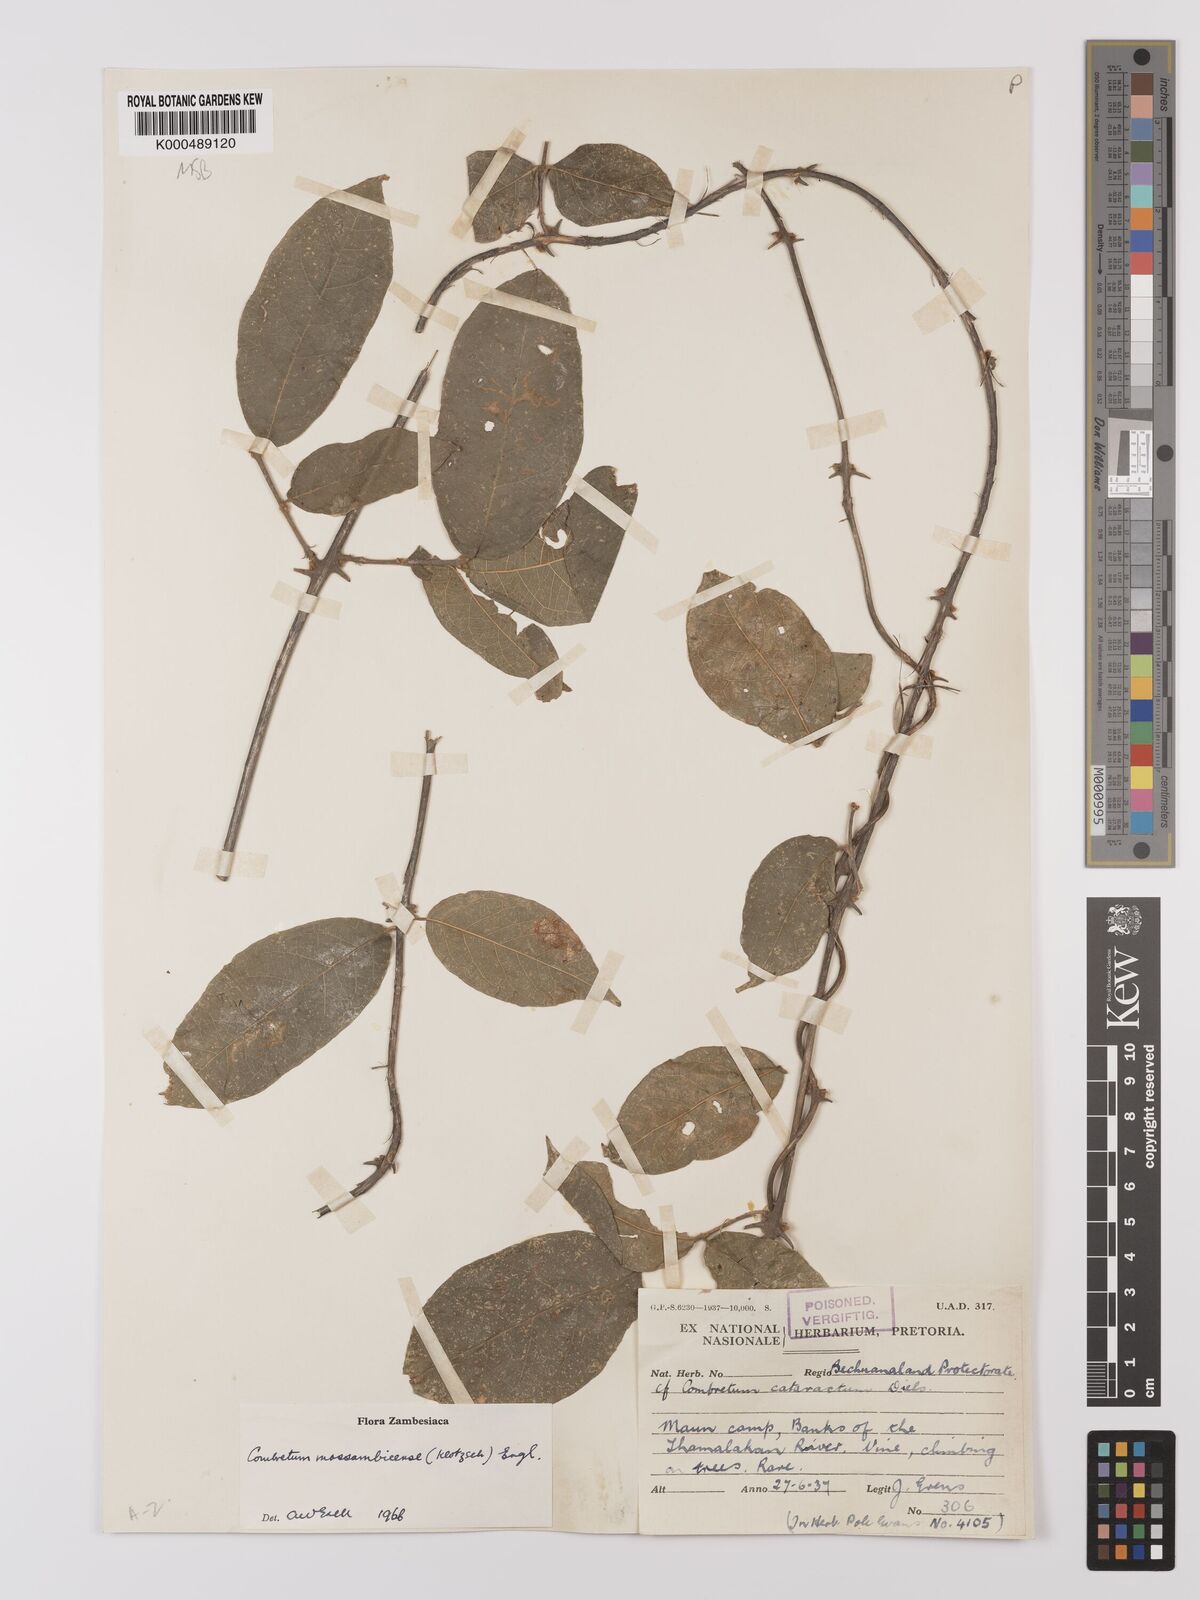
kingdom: Plantae
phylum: Tracheophyta
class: Magnoliopsida
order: Myrtales
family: Combretaceae
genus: Combretum
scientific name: Combretum mossambicense
